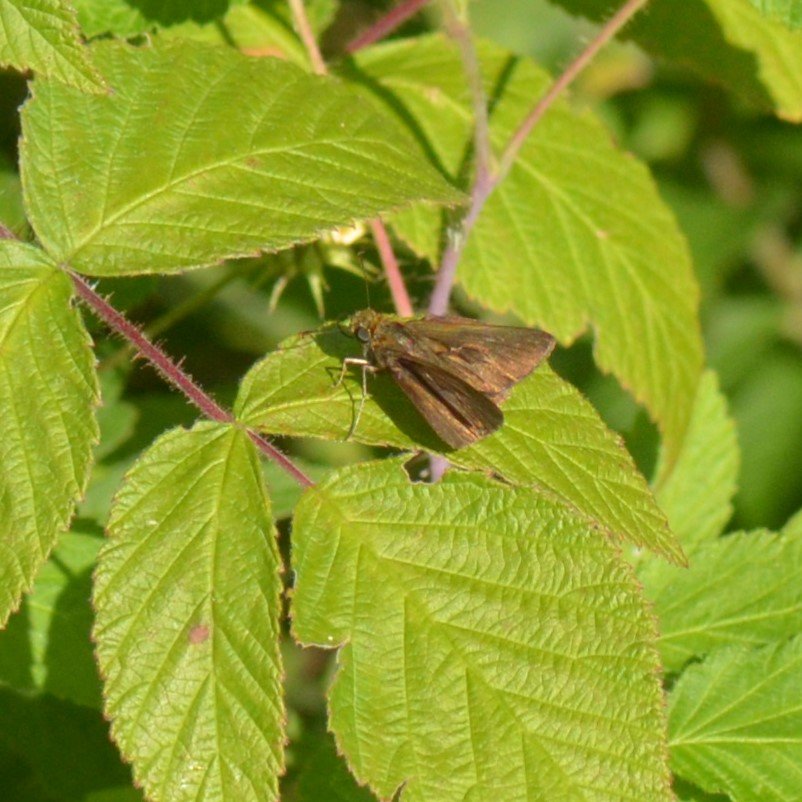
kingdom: Animalia
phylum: Arthropoda
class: Insecta
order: Lepidoptera
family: Hesperiidae
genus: Euphyes
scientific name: Euphyes vestris
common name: Dun Skipper
